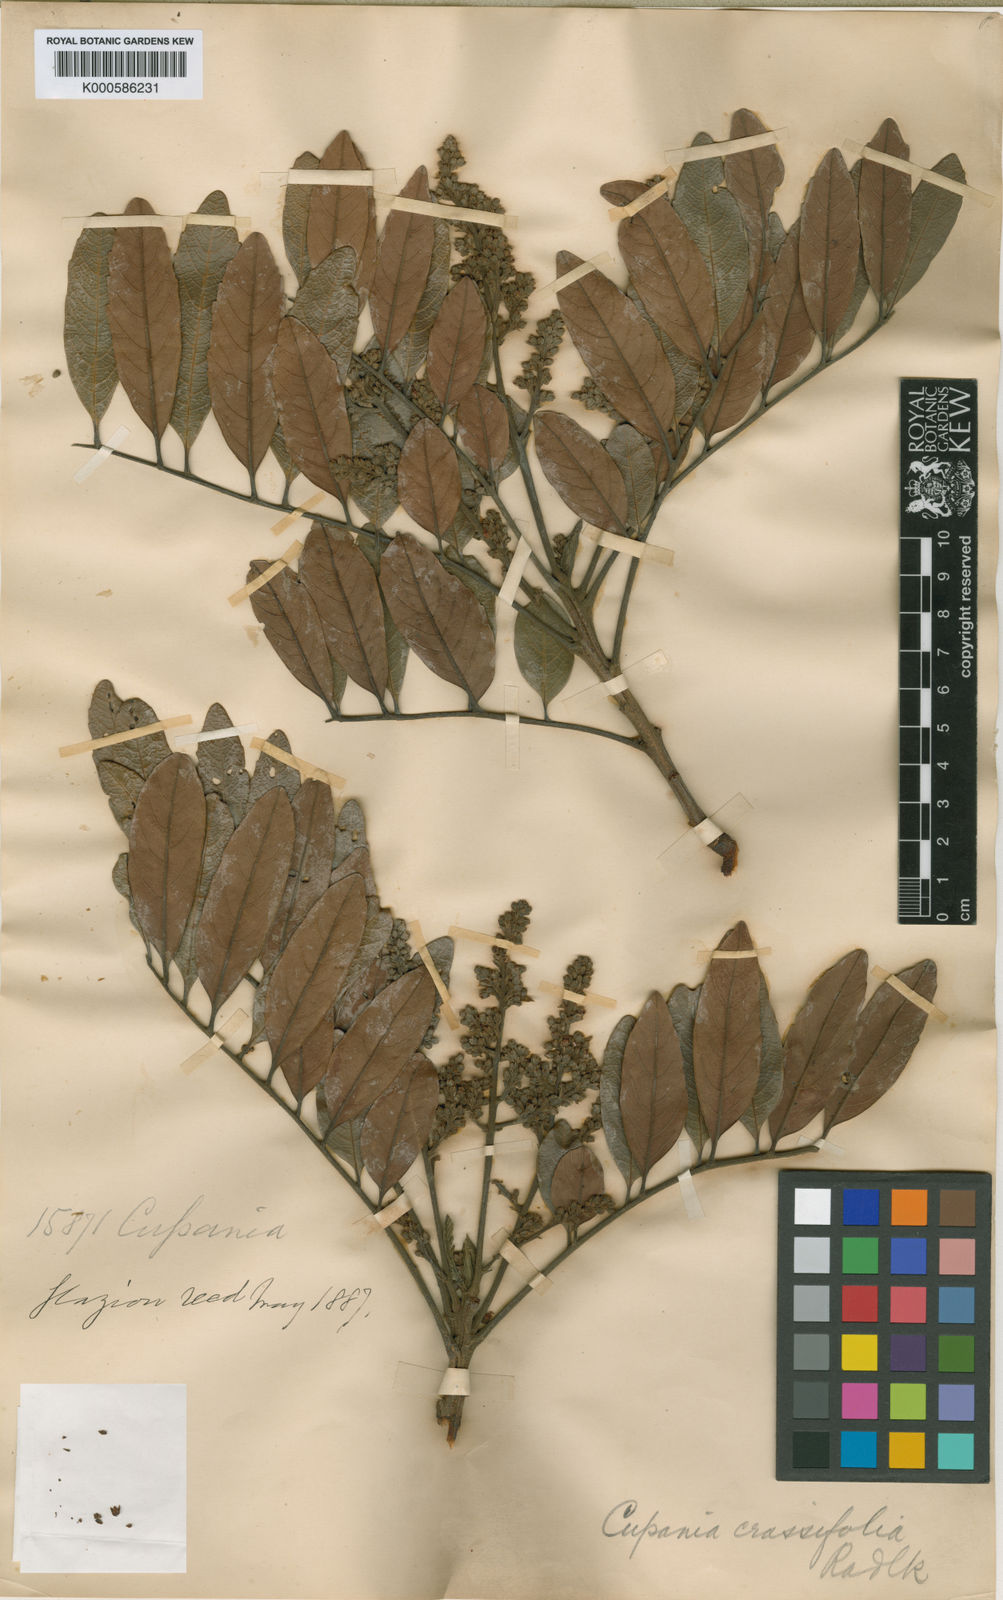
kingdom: Plantae
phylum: Tracheophyta
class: Magnoliopsida
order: Sapindales
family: Sapindaceae
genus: Cupania
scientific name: Cupania crassifolia
